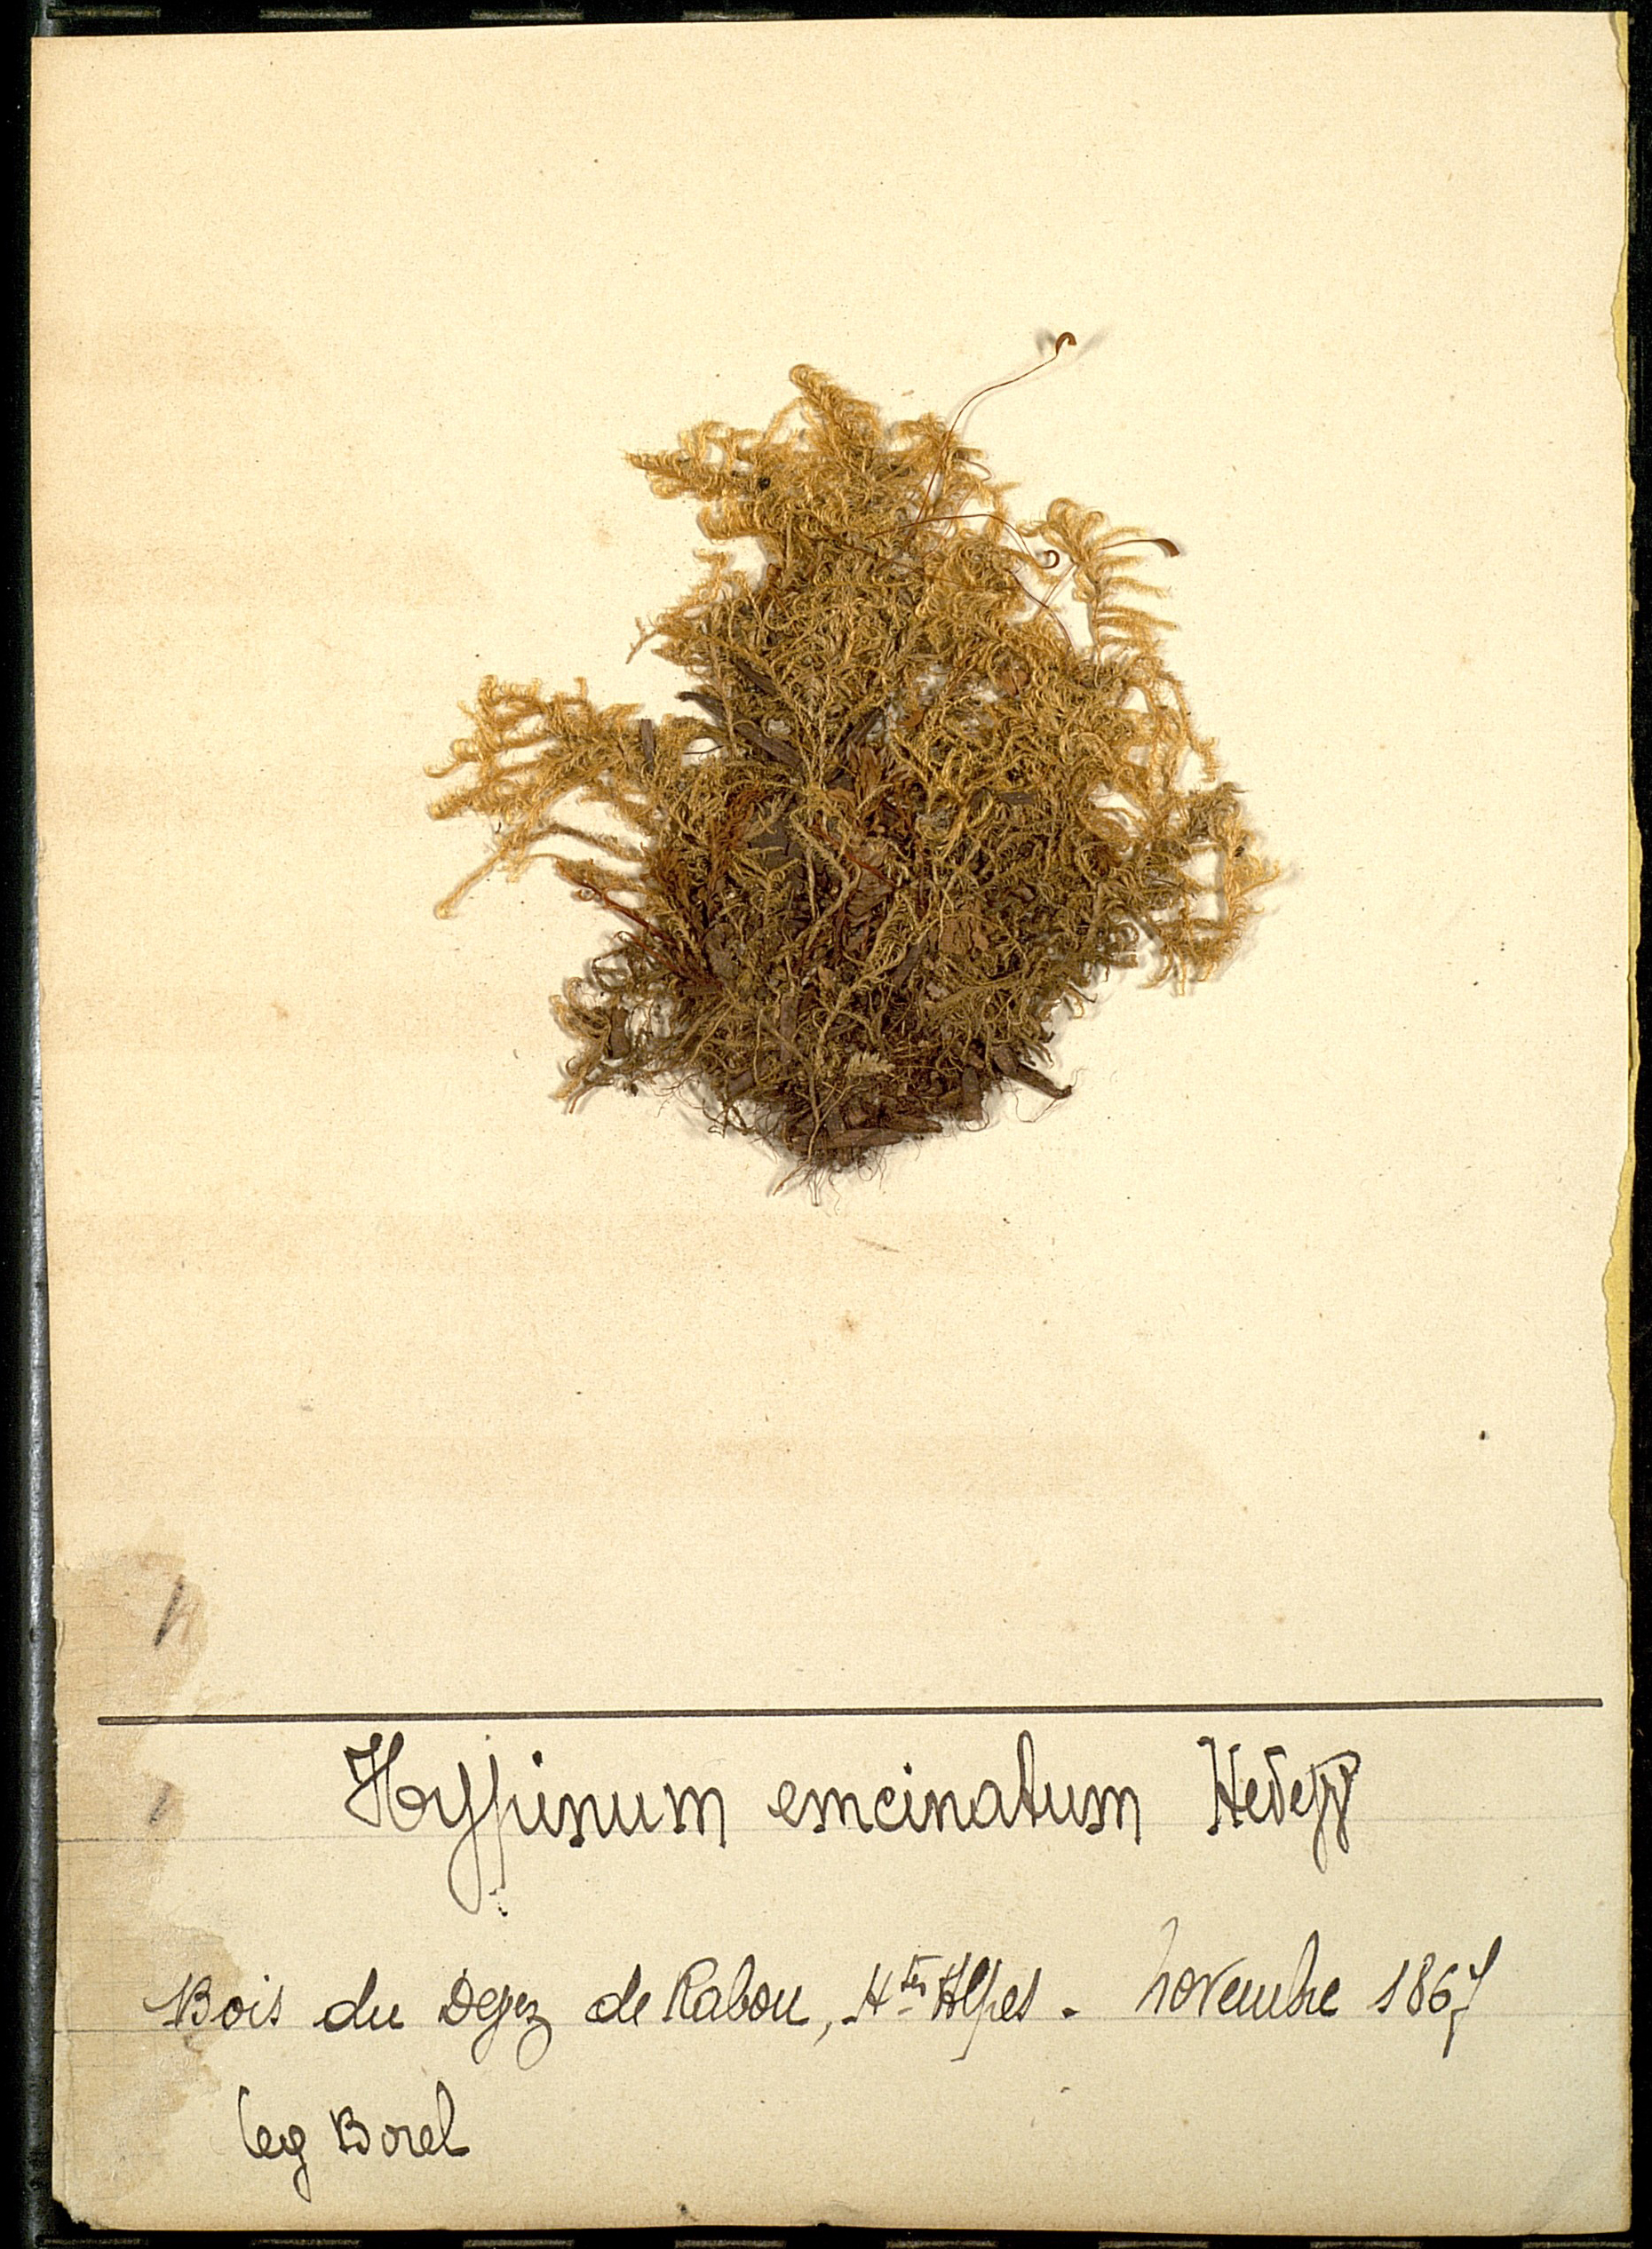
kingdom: Plantae
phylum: Bryophyta
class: Bryopsida
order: Hypnales
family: Scorpidiaceae
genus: Sanionia
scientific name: Sanionia uncinata
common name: Sickle moss
